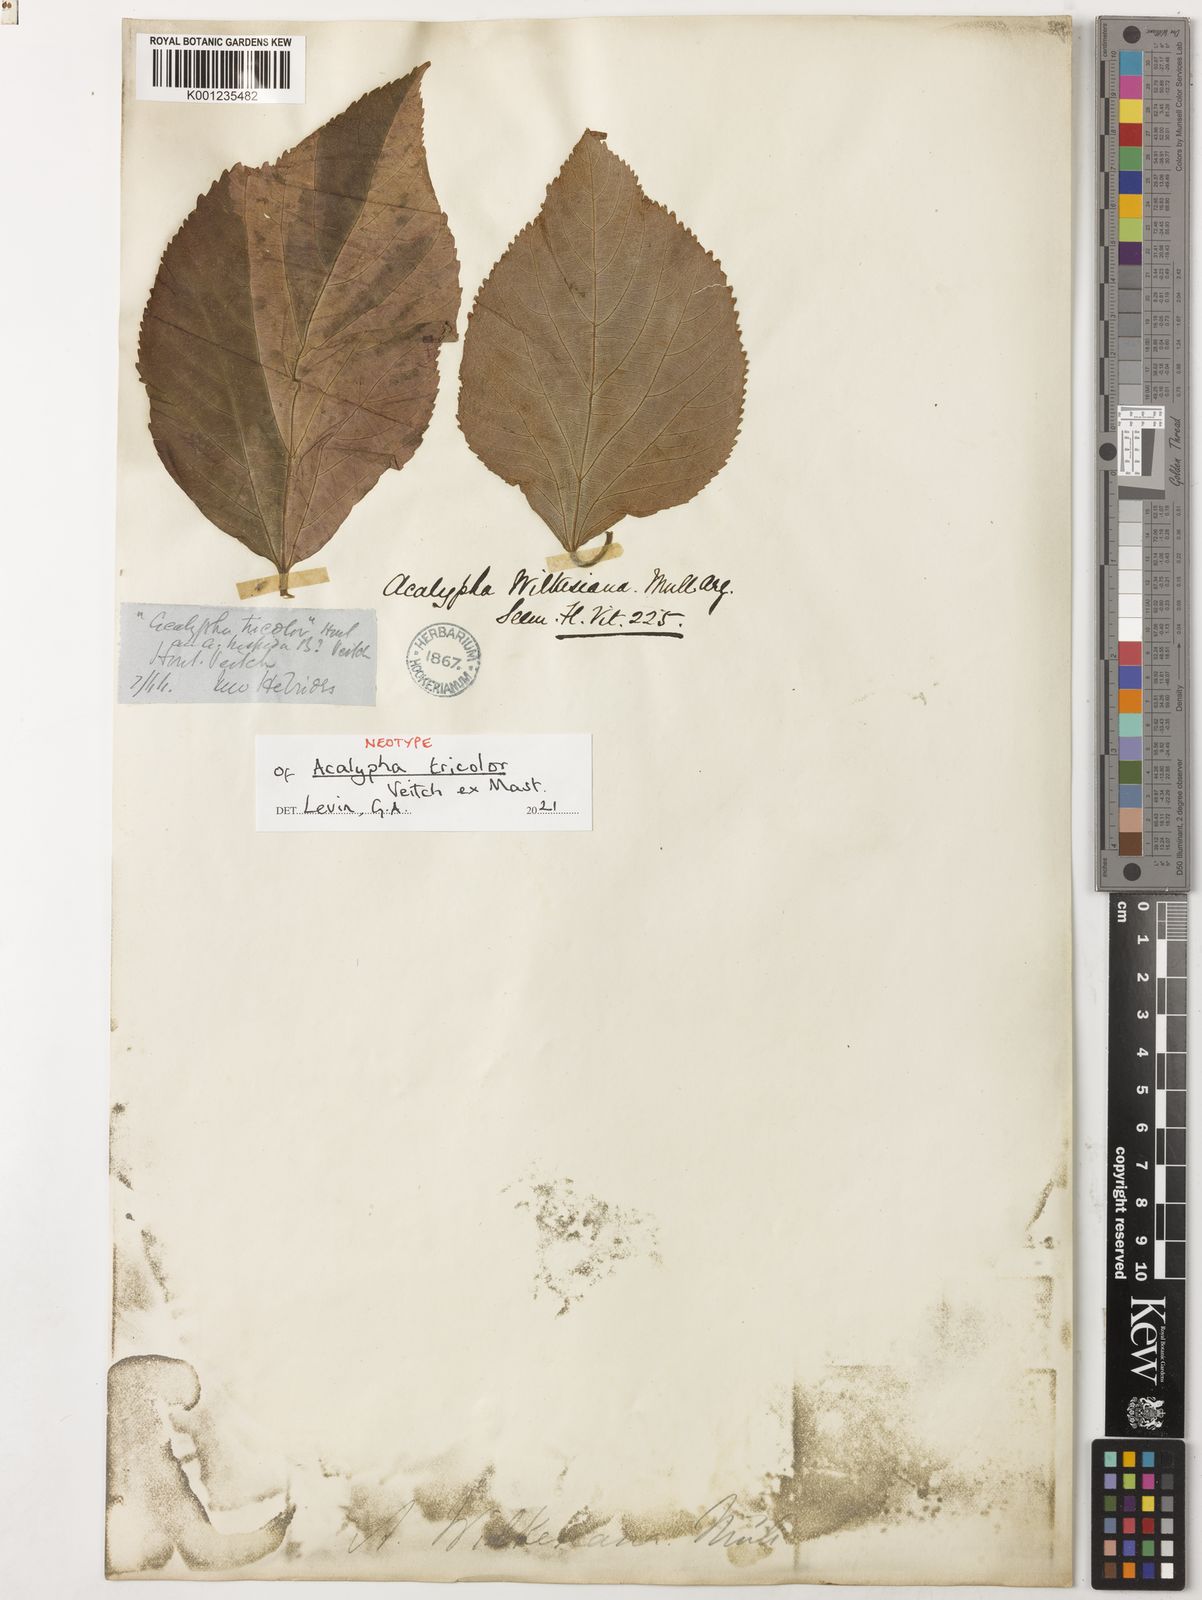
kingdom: Plantae
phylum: Tracheophyta
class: Magnoliopsida
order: Malpighiales
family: Euphorbiaceae
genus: Acalypha
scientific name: Acalypha
